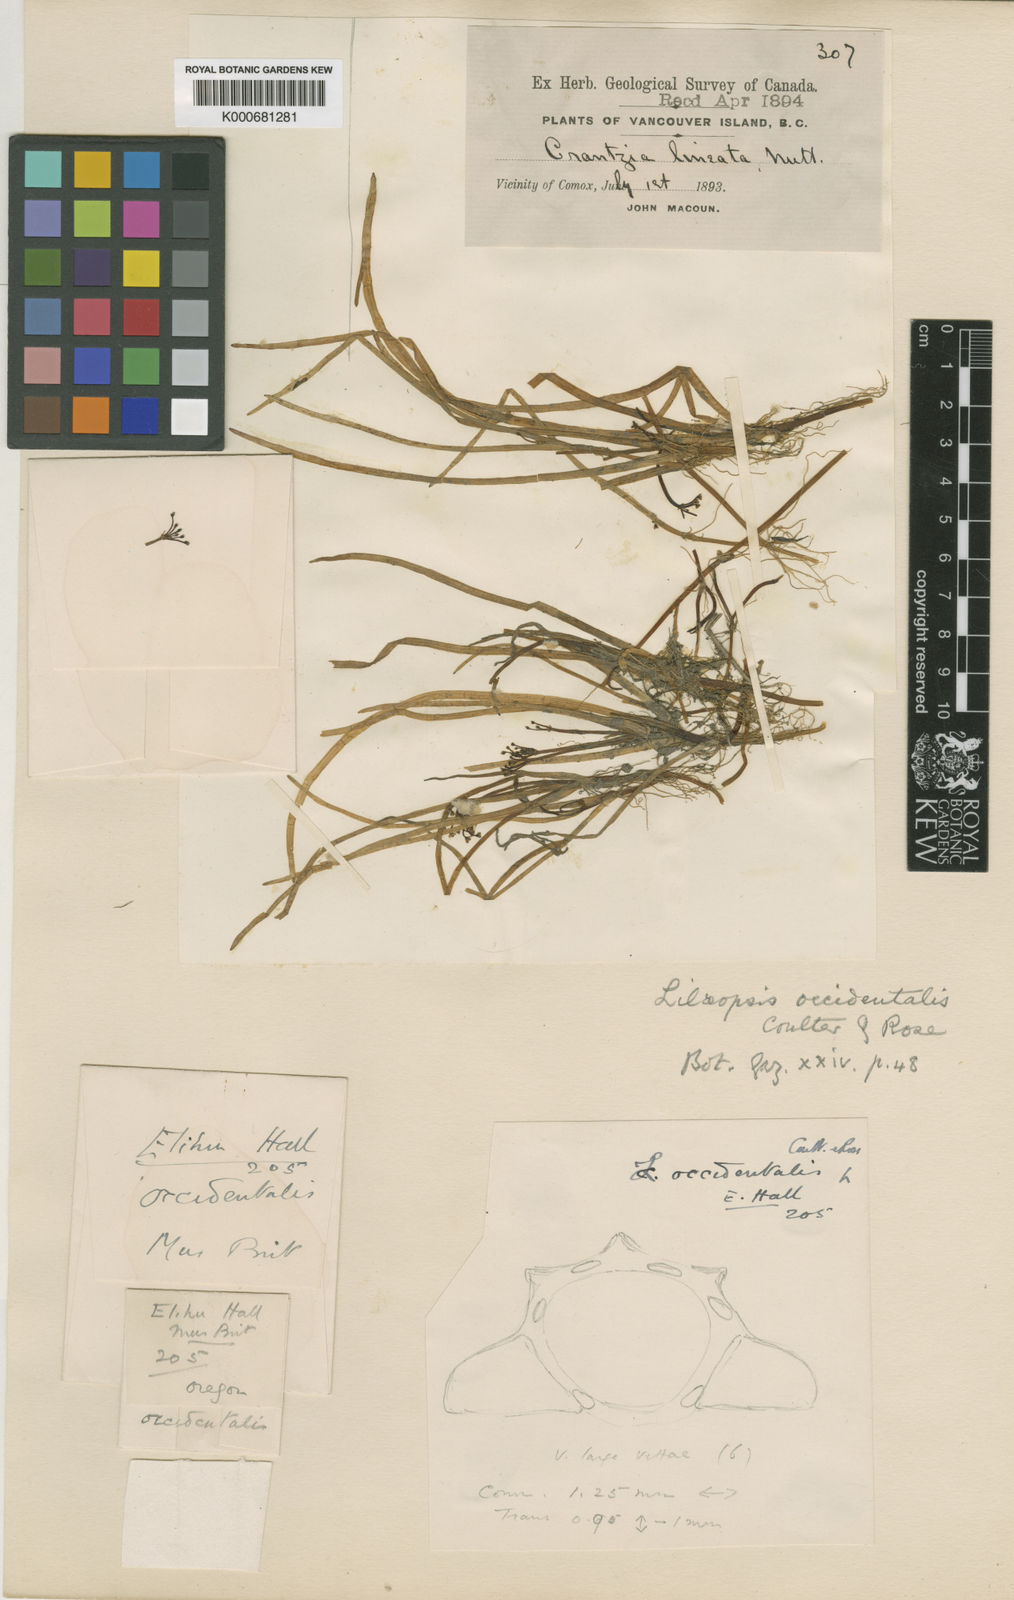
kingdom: Plantae
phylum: Tracheophyta
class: Magnoliopsida
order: Apiales
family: Apiaceae
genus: Lilaeopsis
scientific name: Lilaeopsis occidentalis
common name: Western grasswort
